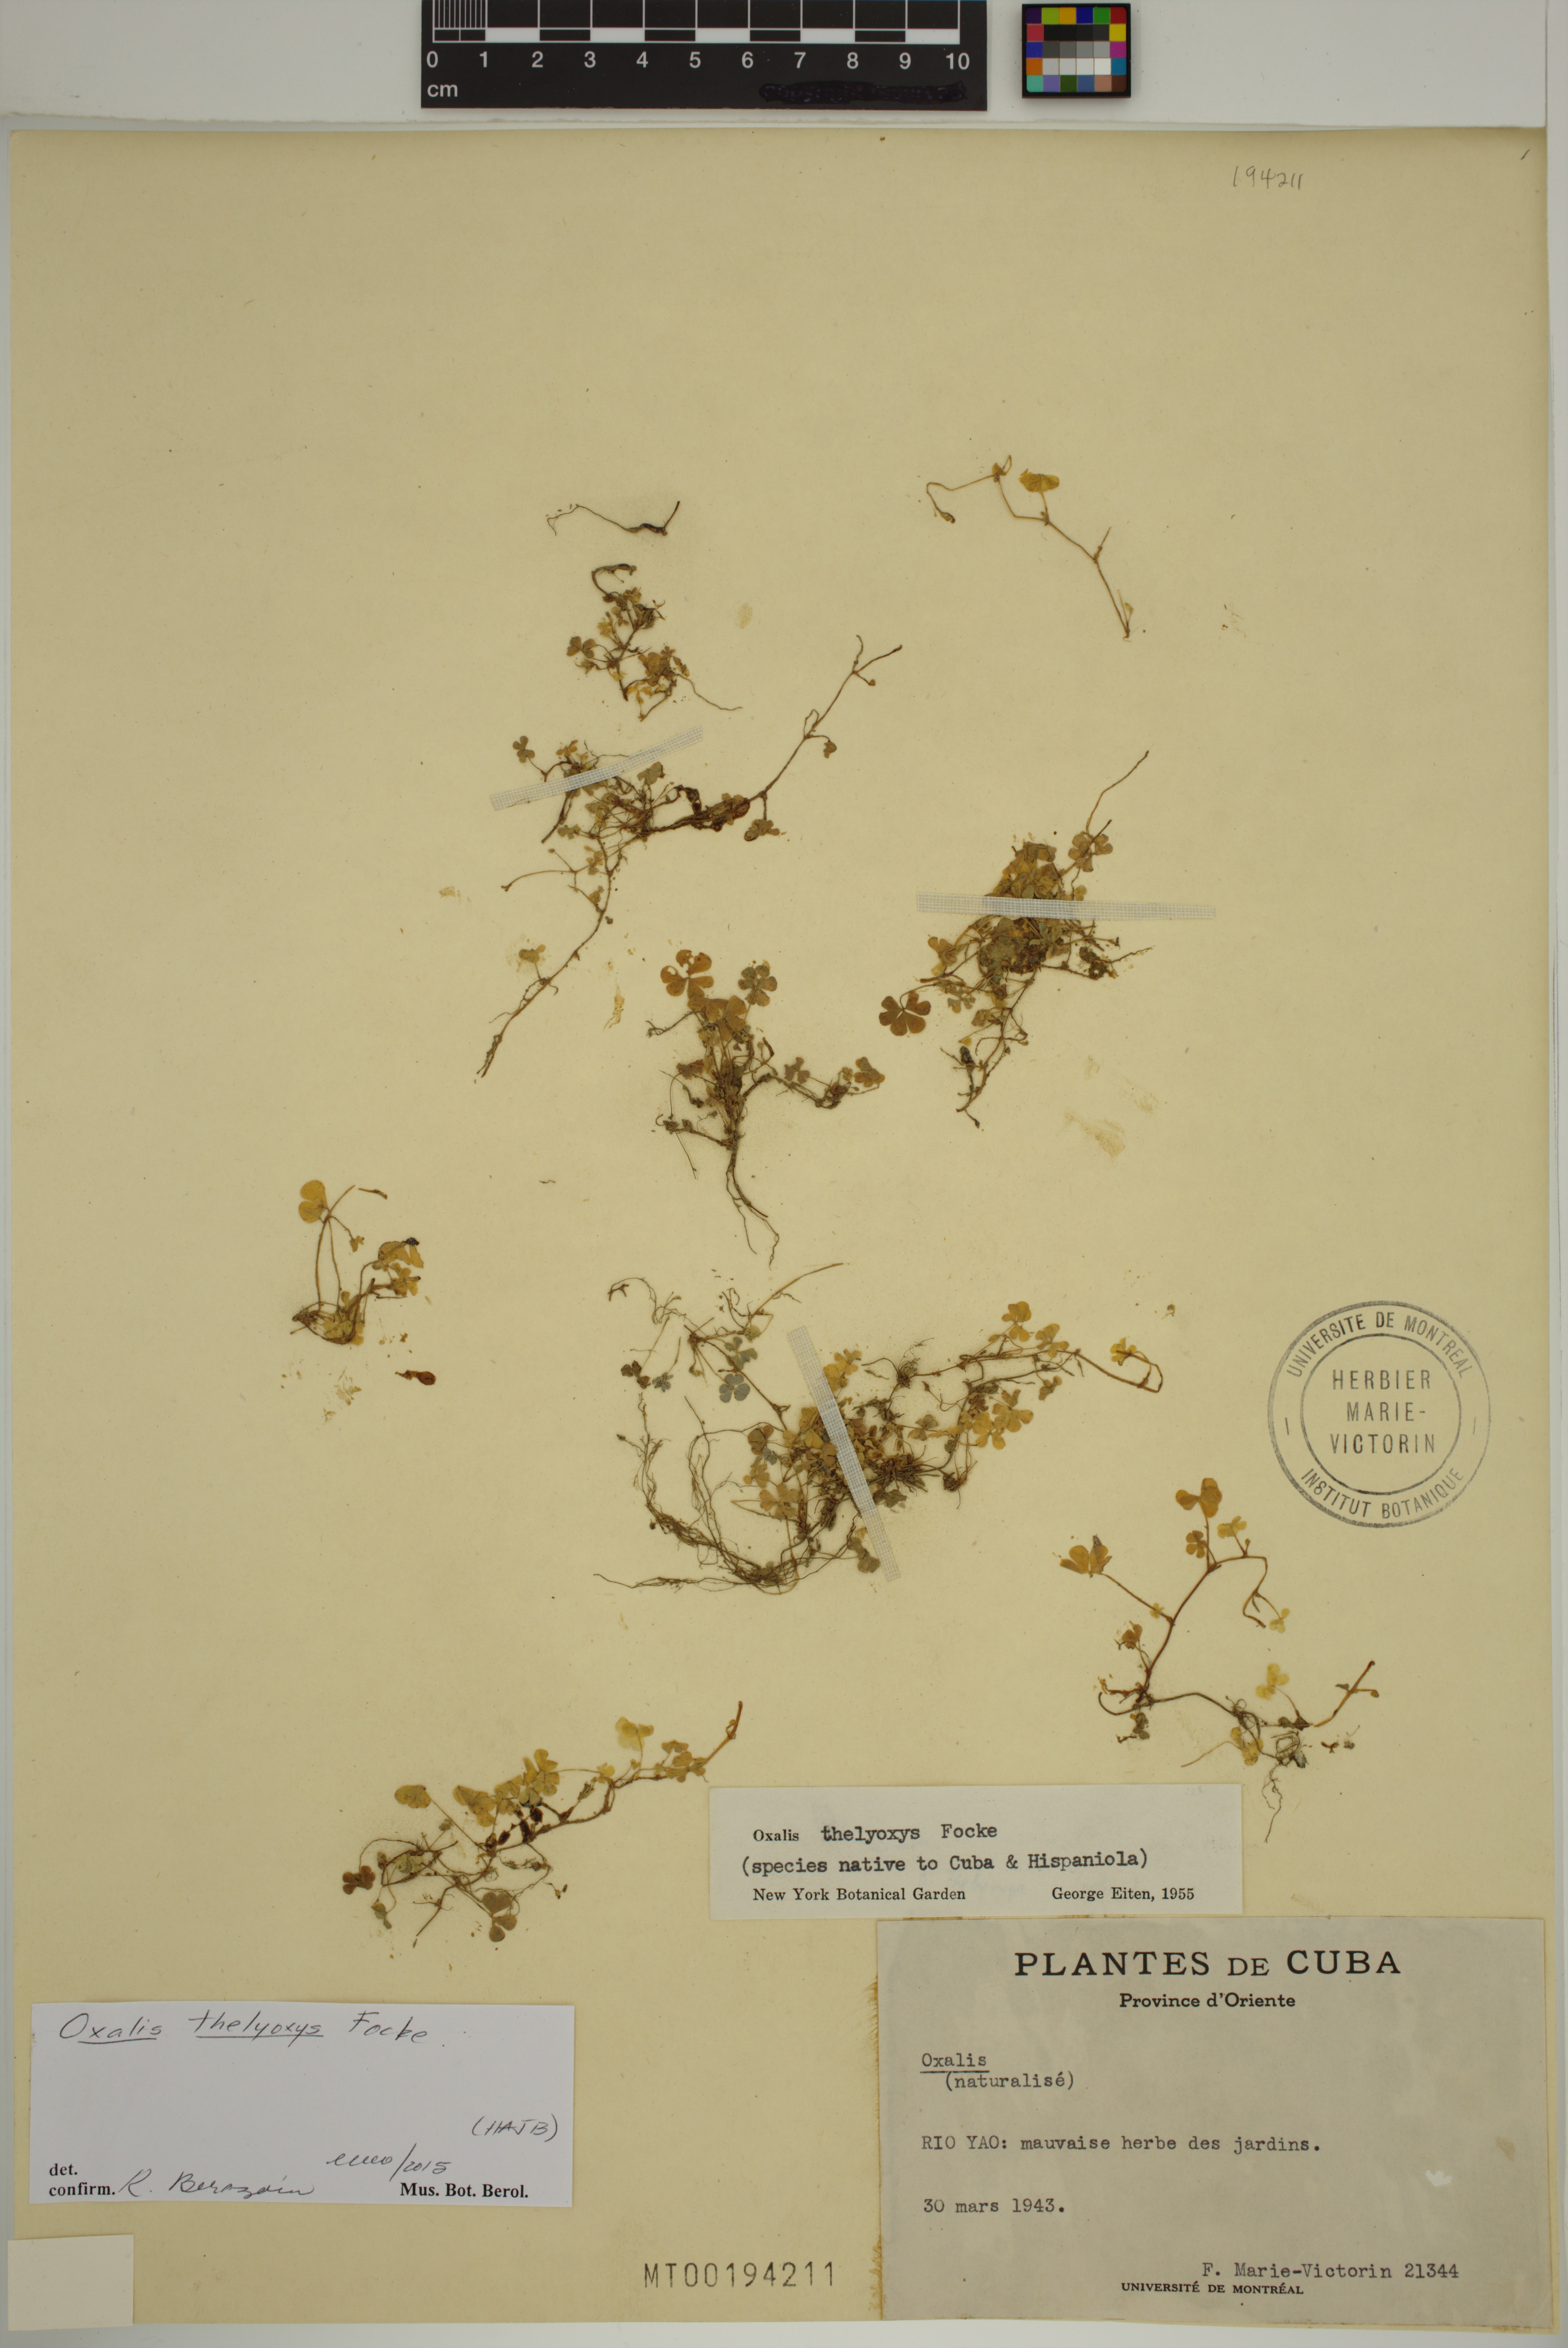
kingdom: Plantae
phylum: Tracheophyta
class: Magnoliopsida
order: Oxalidales
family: Oxalidaceae
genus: Oxalis
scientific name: Oxalis thelyoxys
